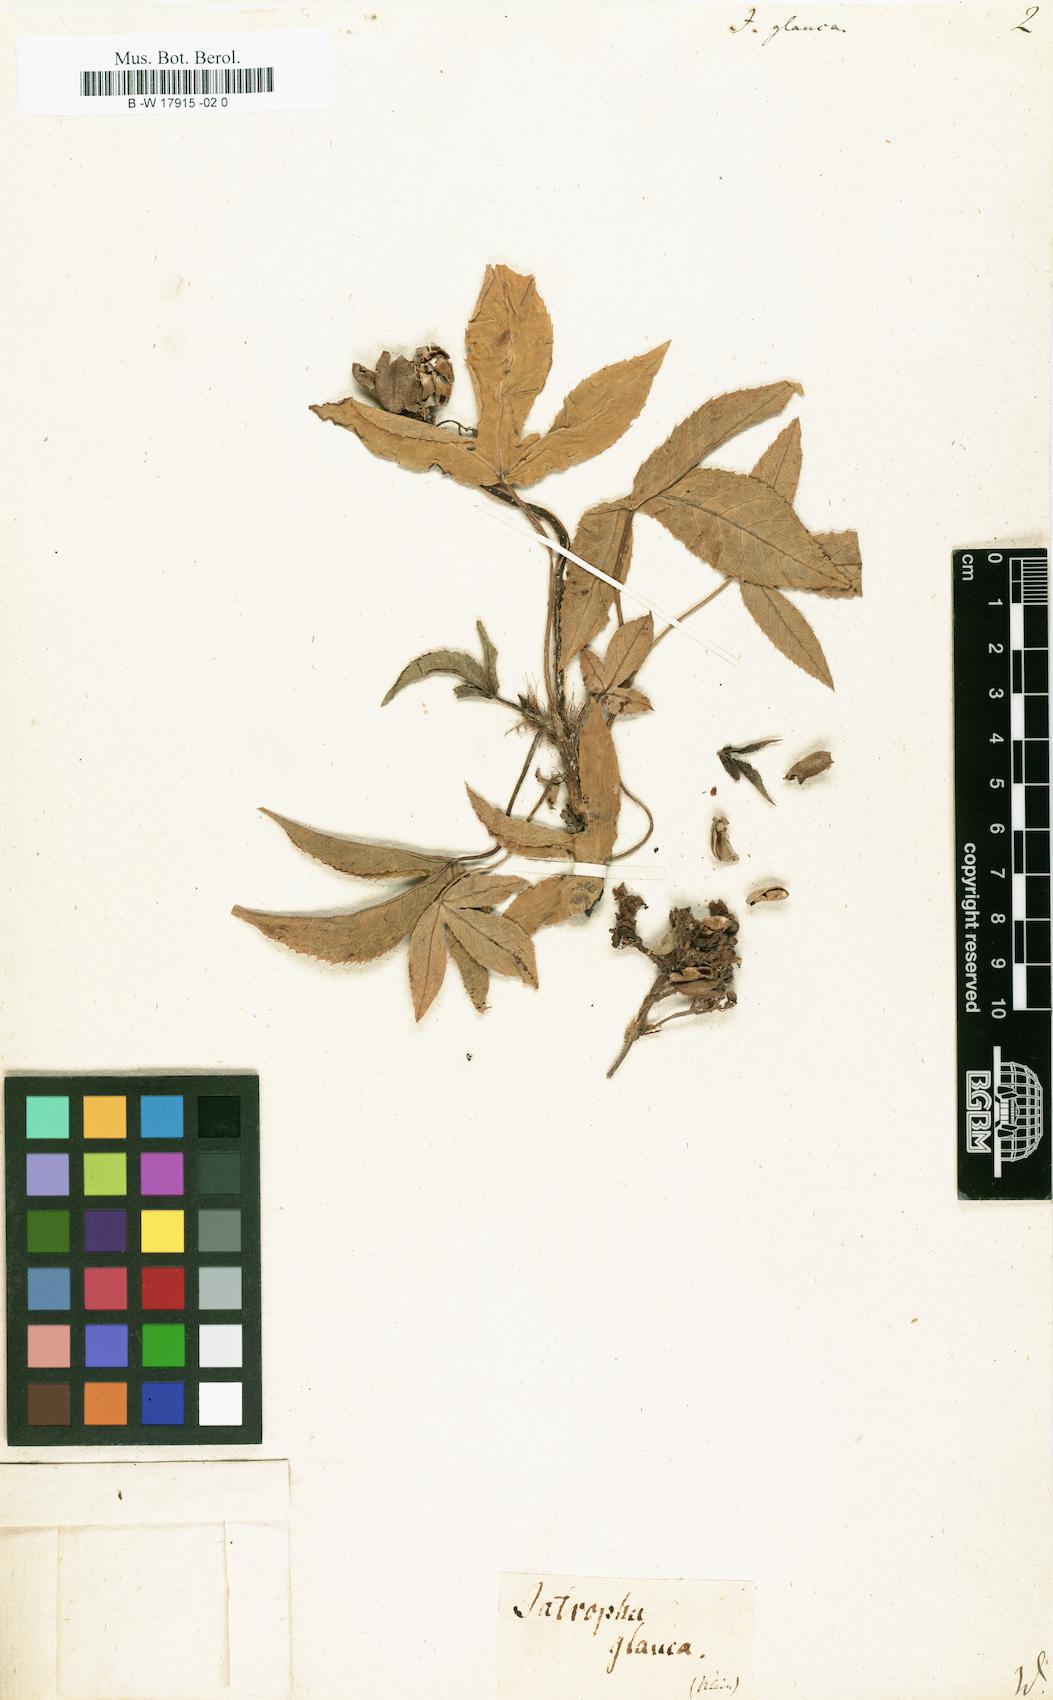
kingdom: Plantae
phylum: Tracheophyta
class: Magnoliopsida
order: Malpighiales
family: Euphorbiaceae
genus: Jatropha
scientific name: Jatropha glauca
